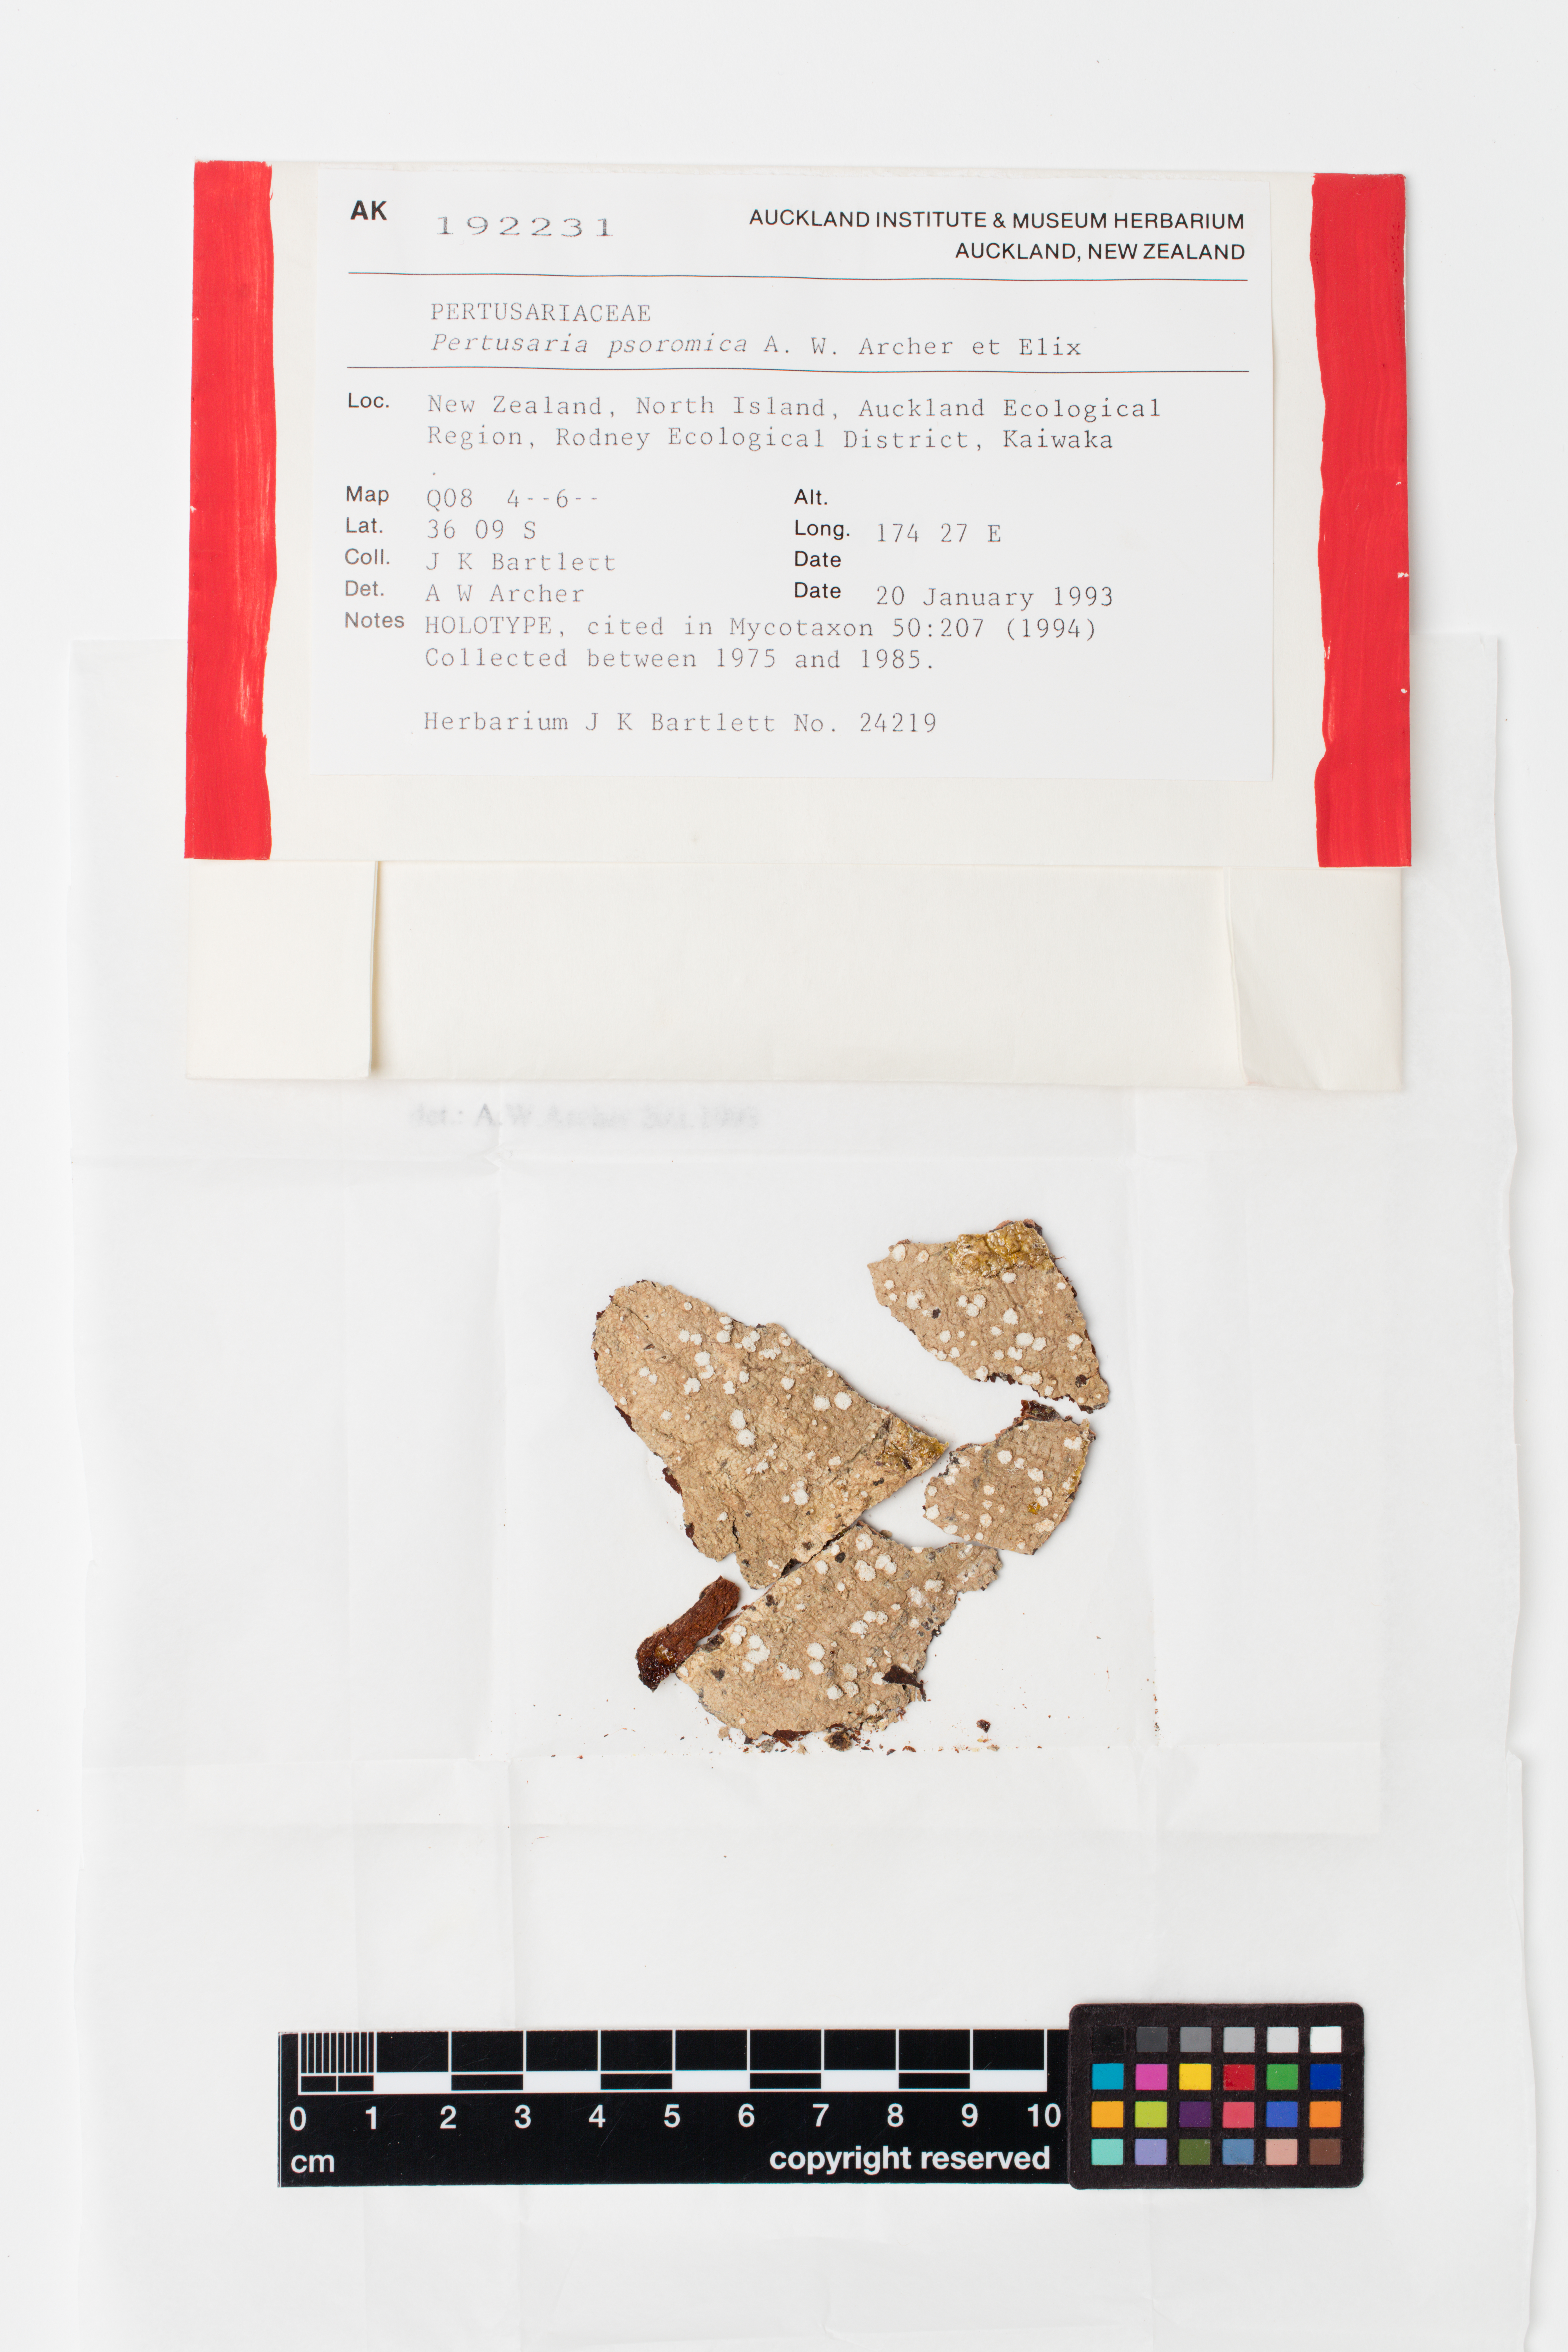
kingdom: Fungi
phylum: Ascomycota
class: Lecanoromycetes
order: Pertusariales
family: Pertusariaceae
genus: Lepra
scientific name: Lepra psoromica
